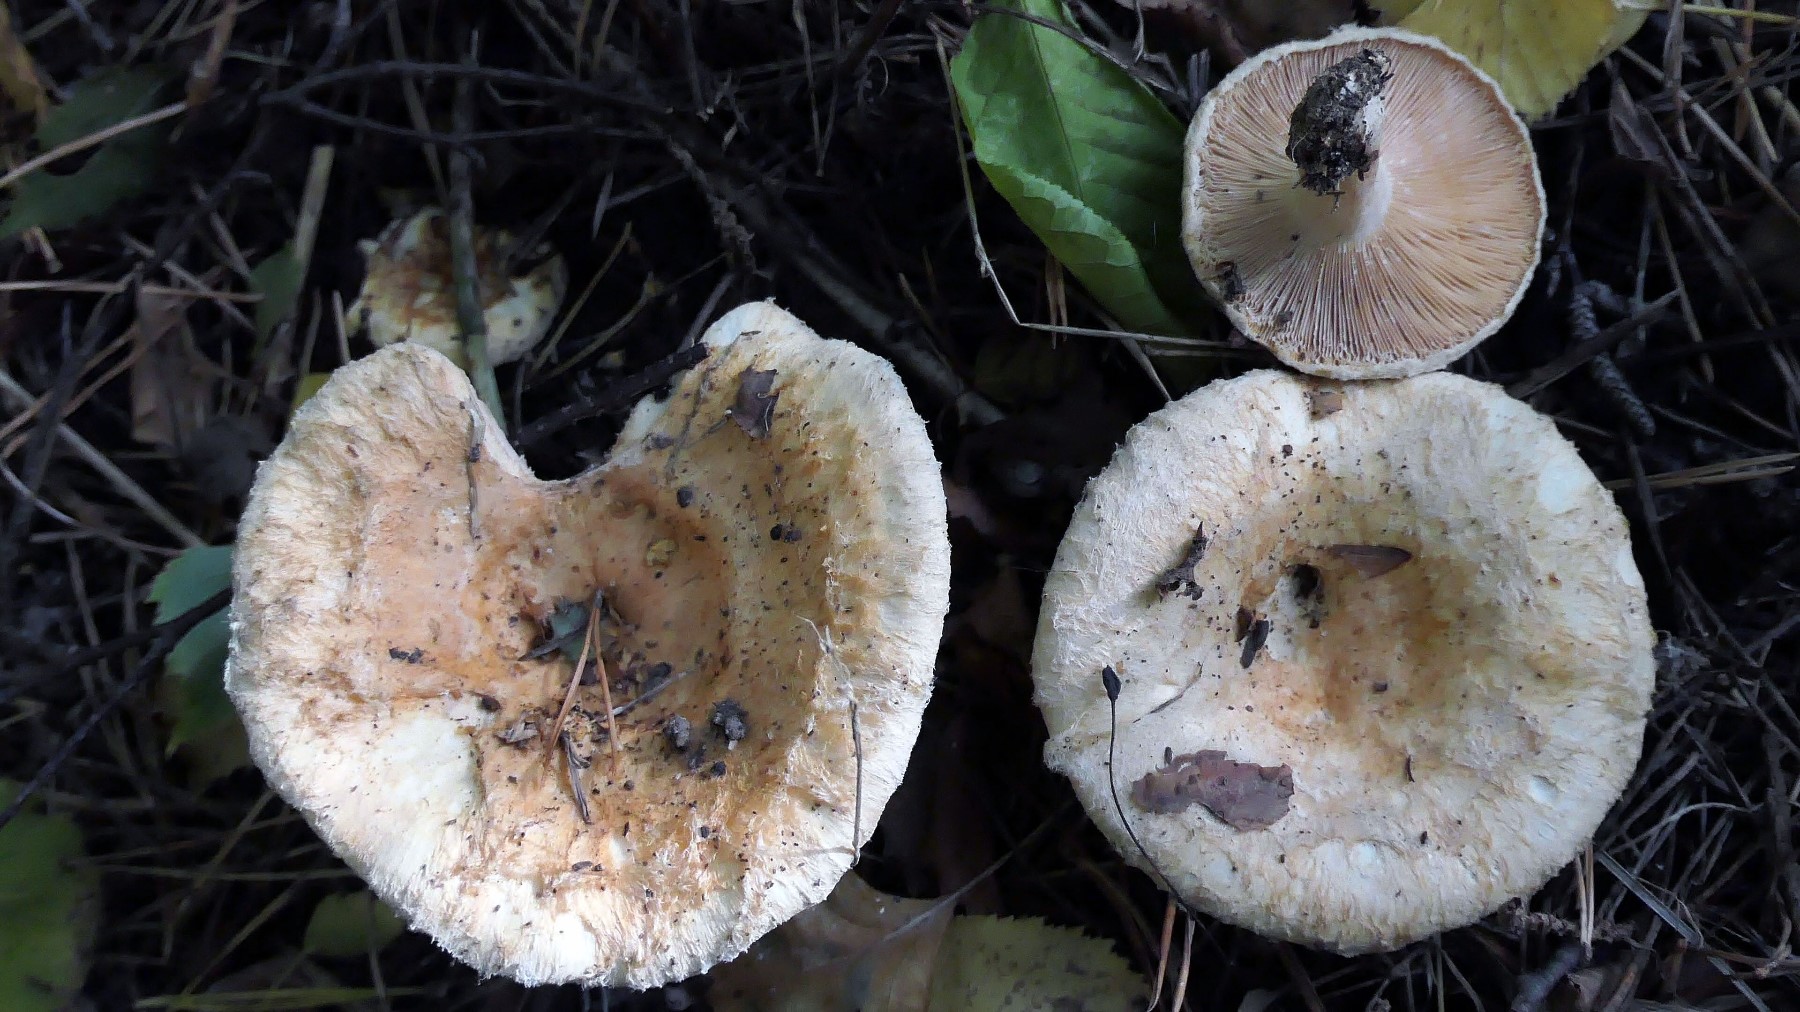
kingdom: Fungi
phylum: Basidiomycota
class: Agaricomycetes
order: Russulales
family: Russulaceae
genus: Lactarius
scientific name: Lactarius pubescens
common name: dunet mælkehat
